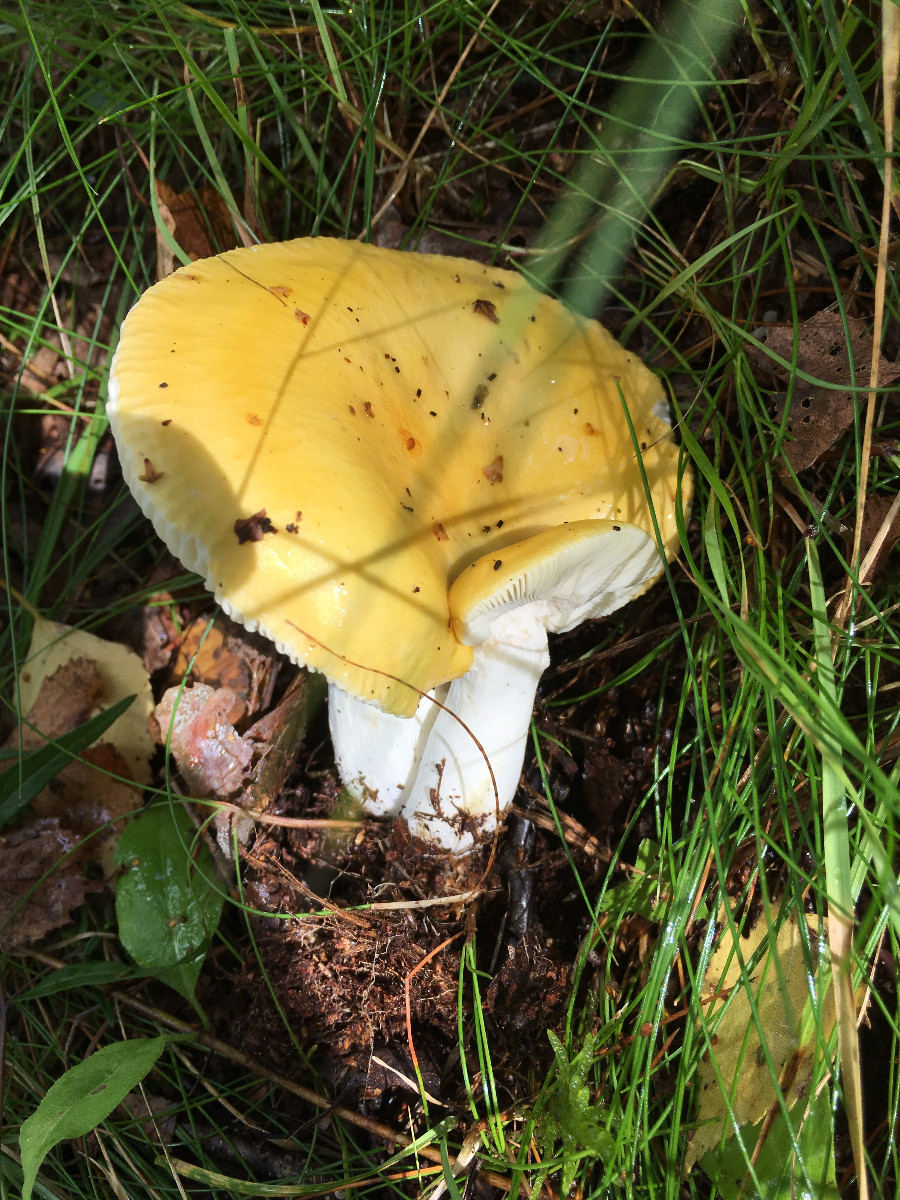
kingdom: Fungi
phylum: Basidiomycota
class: Agaricomycetes
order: Russulales
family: Russulaceae
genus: Russula
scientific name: Russula claroflava
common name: birke-skørhat
